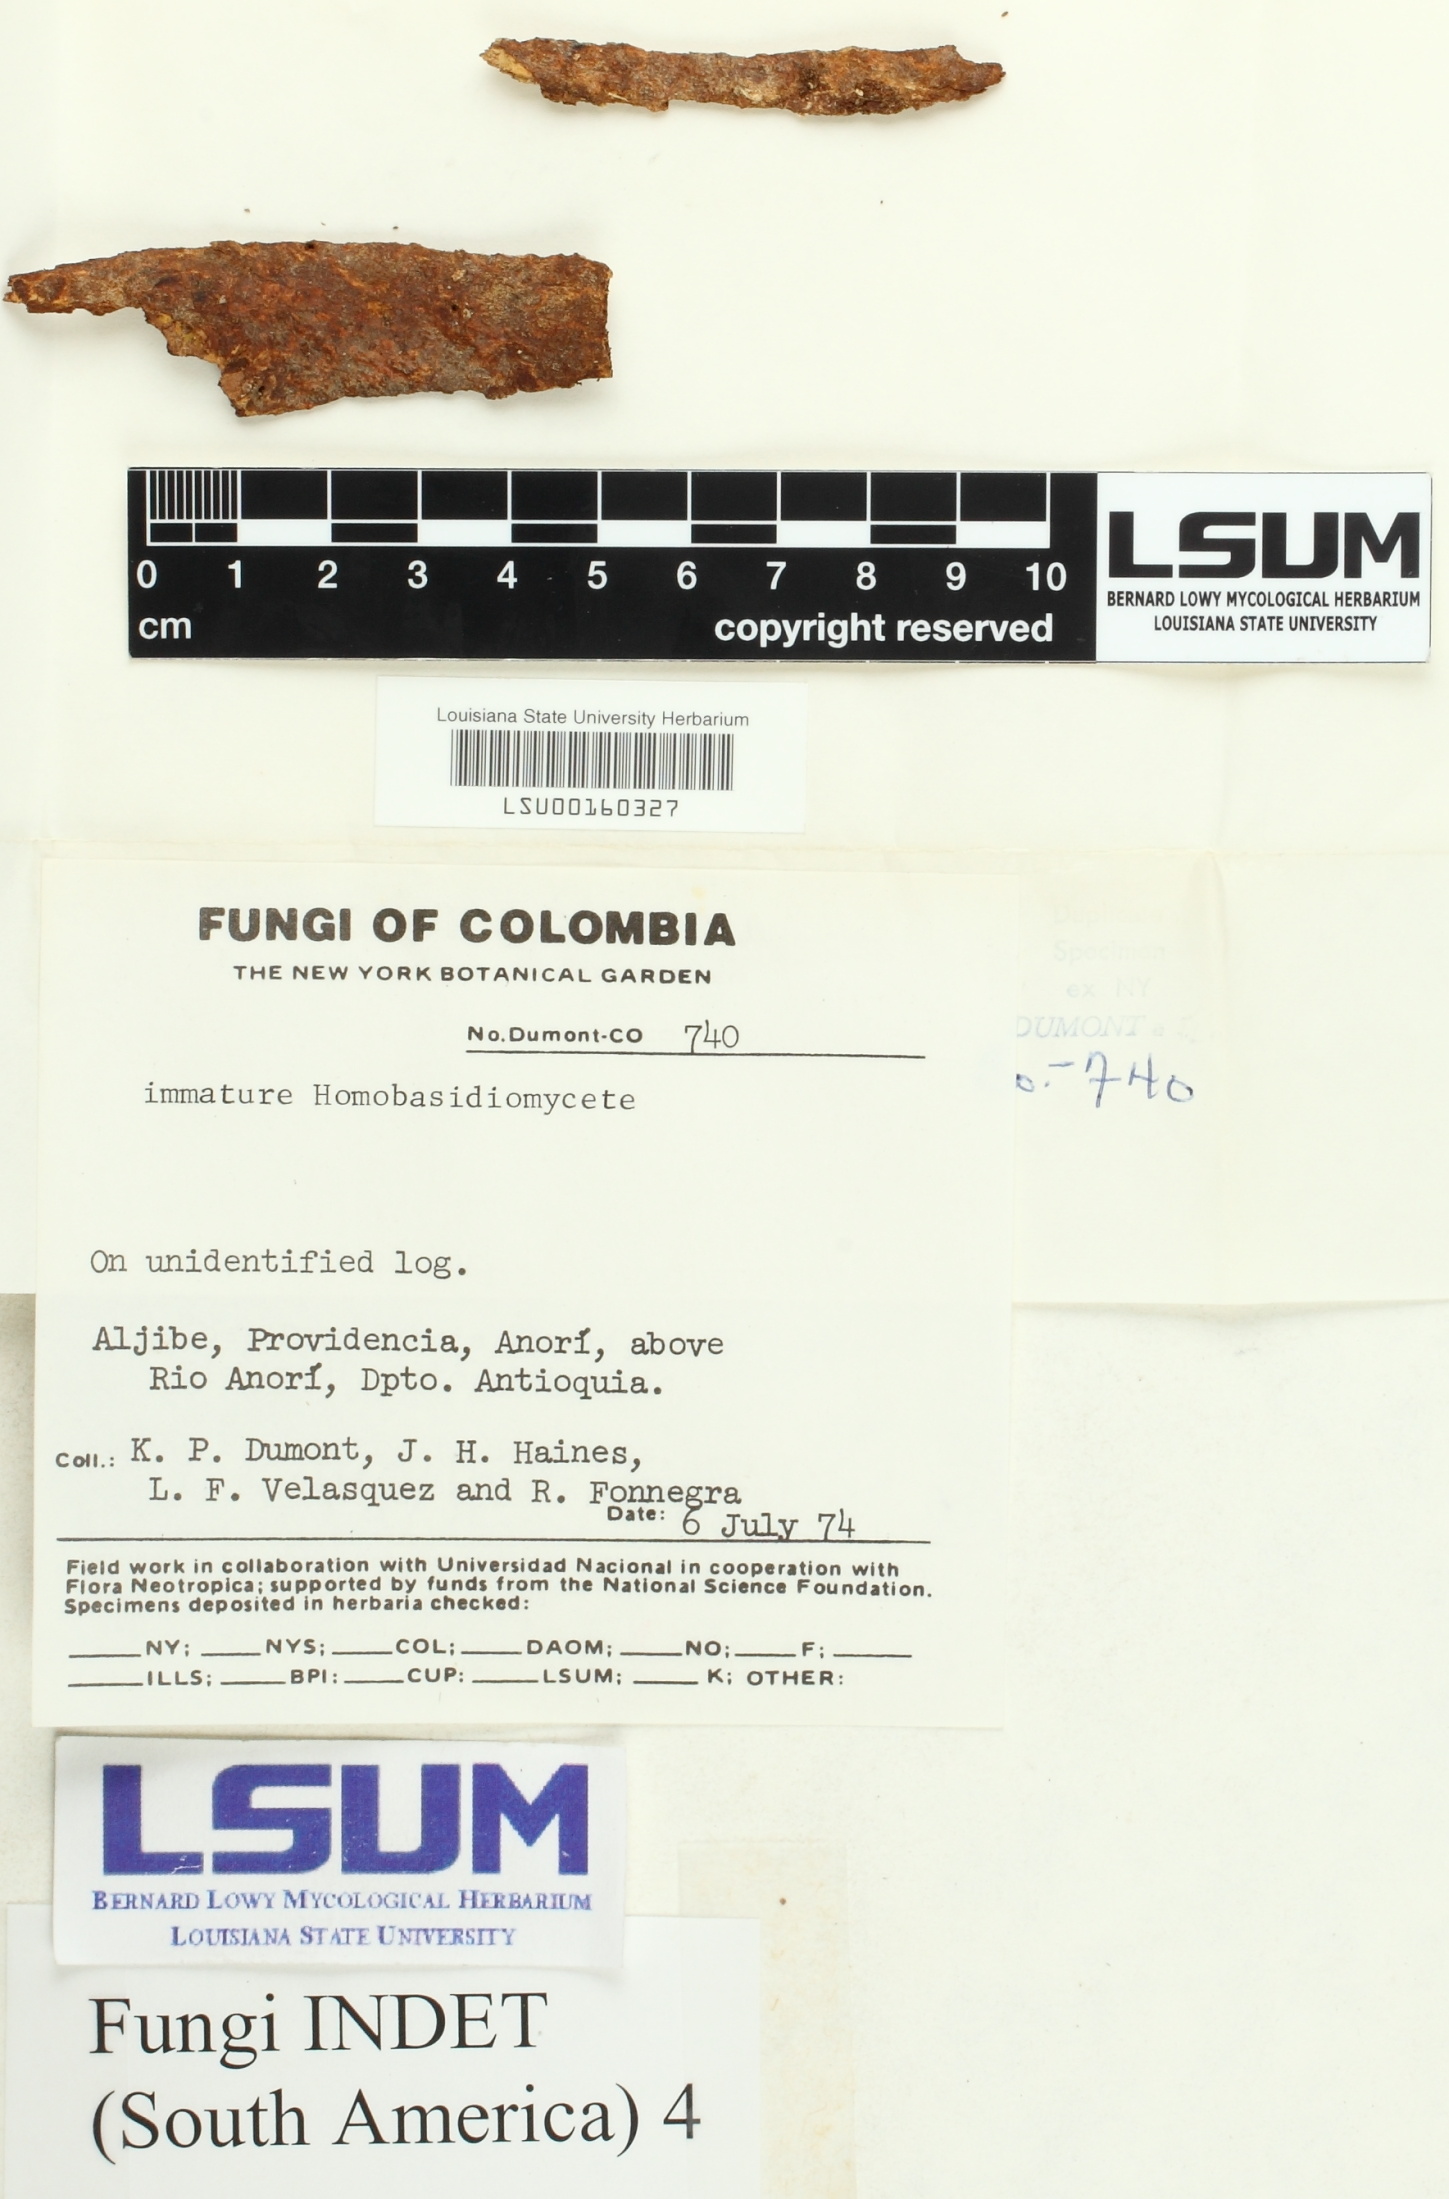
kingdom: Fungi
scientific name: Fungi
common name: Fungi
